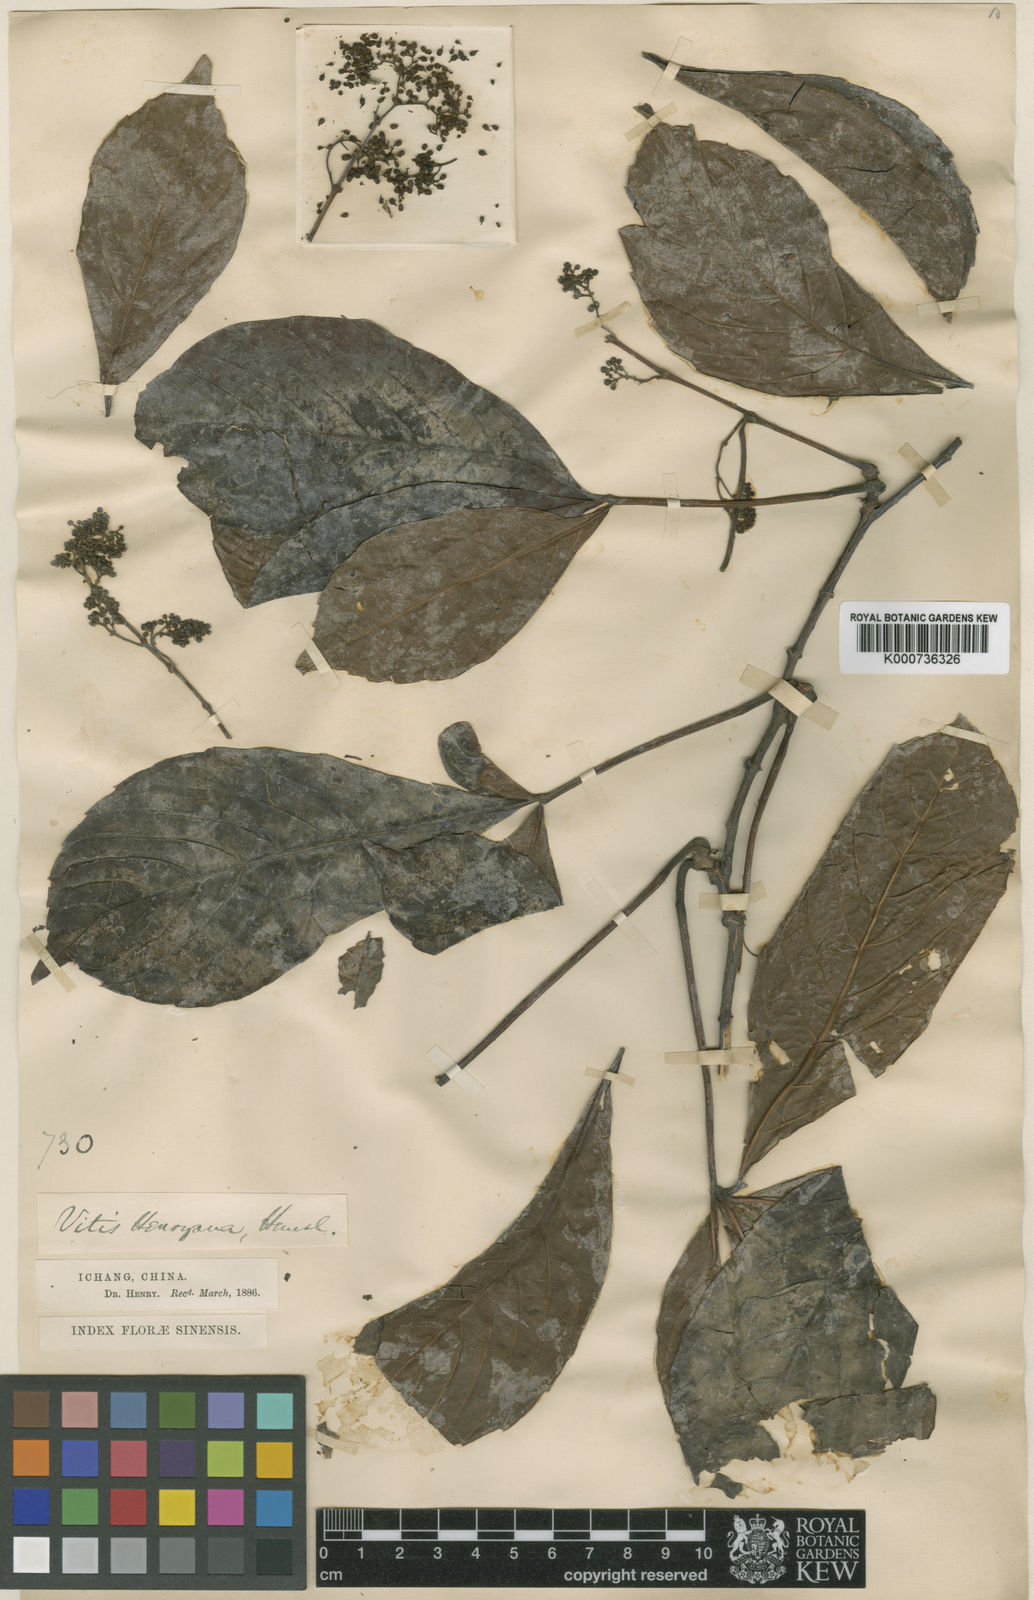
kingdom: Plantae
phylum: Tracheophyta
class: Magnoliopsida
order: Vitales
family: Vitaceae
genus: Parthenocissus
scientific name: Parthenocissus henryana
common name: Chinese virginia-creeper
